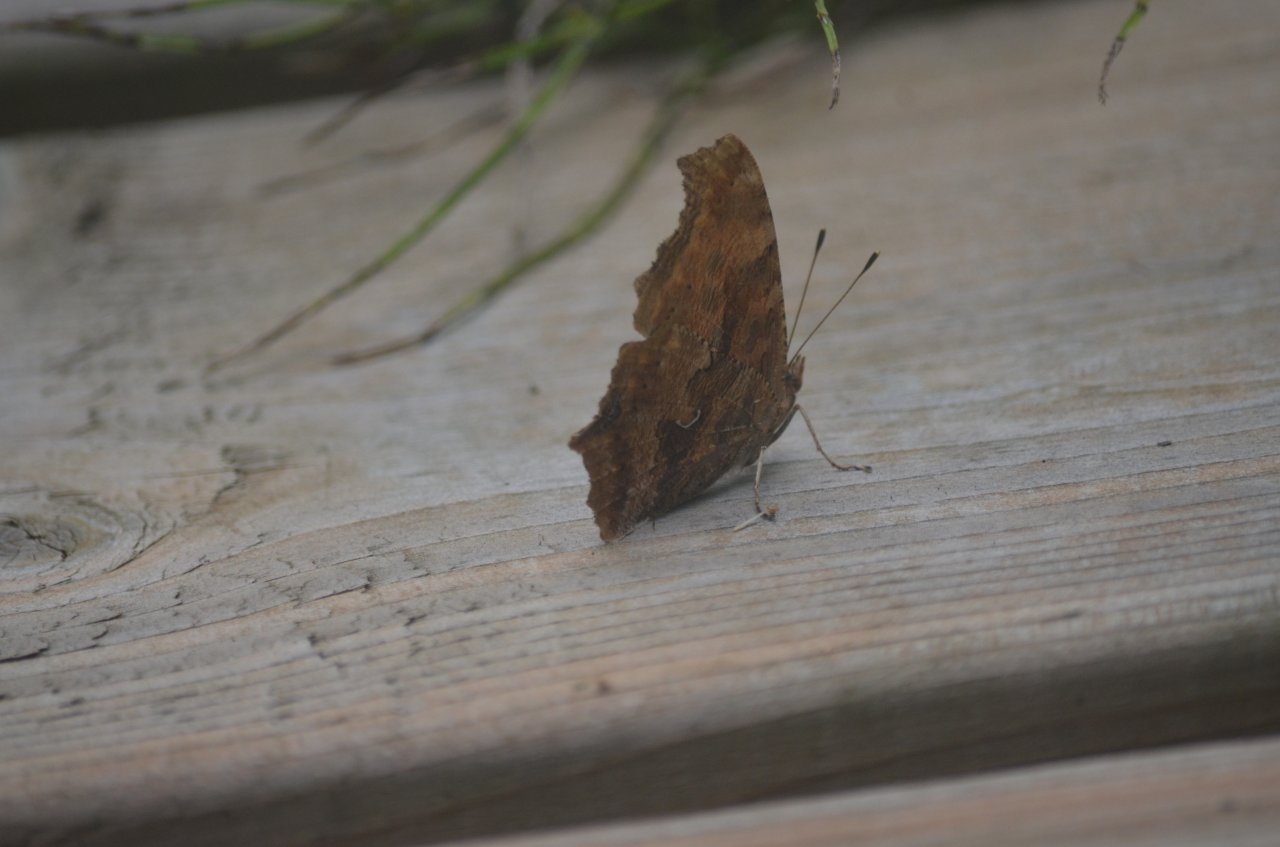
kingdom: Animalia
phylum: Arthropoda
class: Insecta
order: Lepidoptera
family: Nymphalidae
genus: Polygonia
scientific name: Polygonia comma
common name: Eastern Comma
